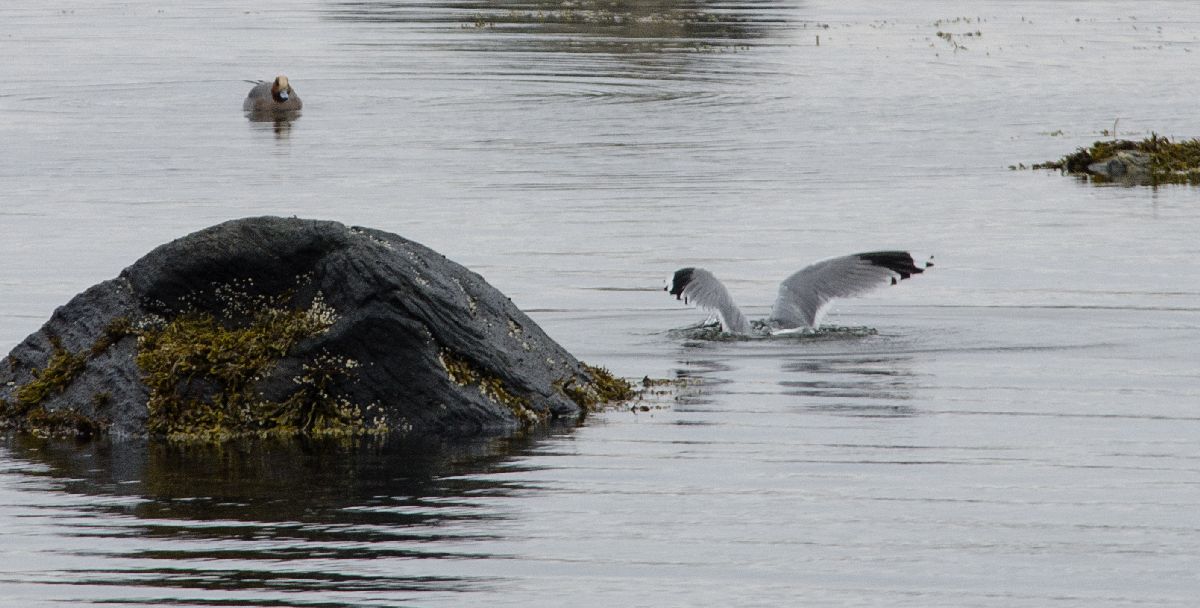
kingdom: Animalia
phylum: Chordata
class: Aves
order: Charadriiformes
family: Laridae
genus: Larus
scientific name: Larus canus
